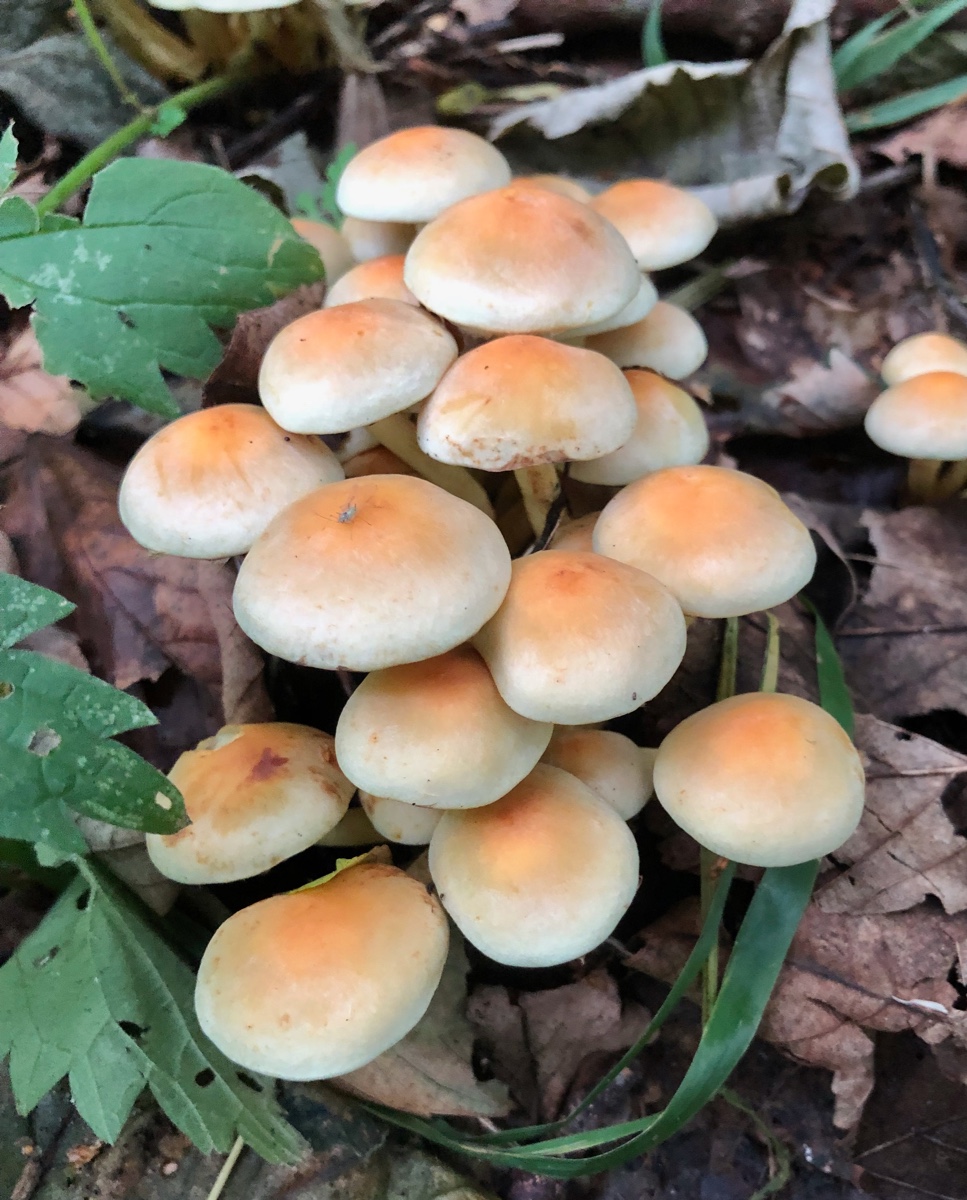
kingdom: Fungi
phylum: Basidiomycota
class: Agaricomycetes
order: Agaricales
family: Strophariaceae
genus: Hypholoma
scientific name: Hypholoma fasciculare
